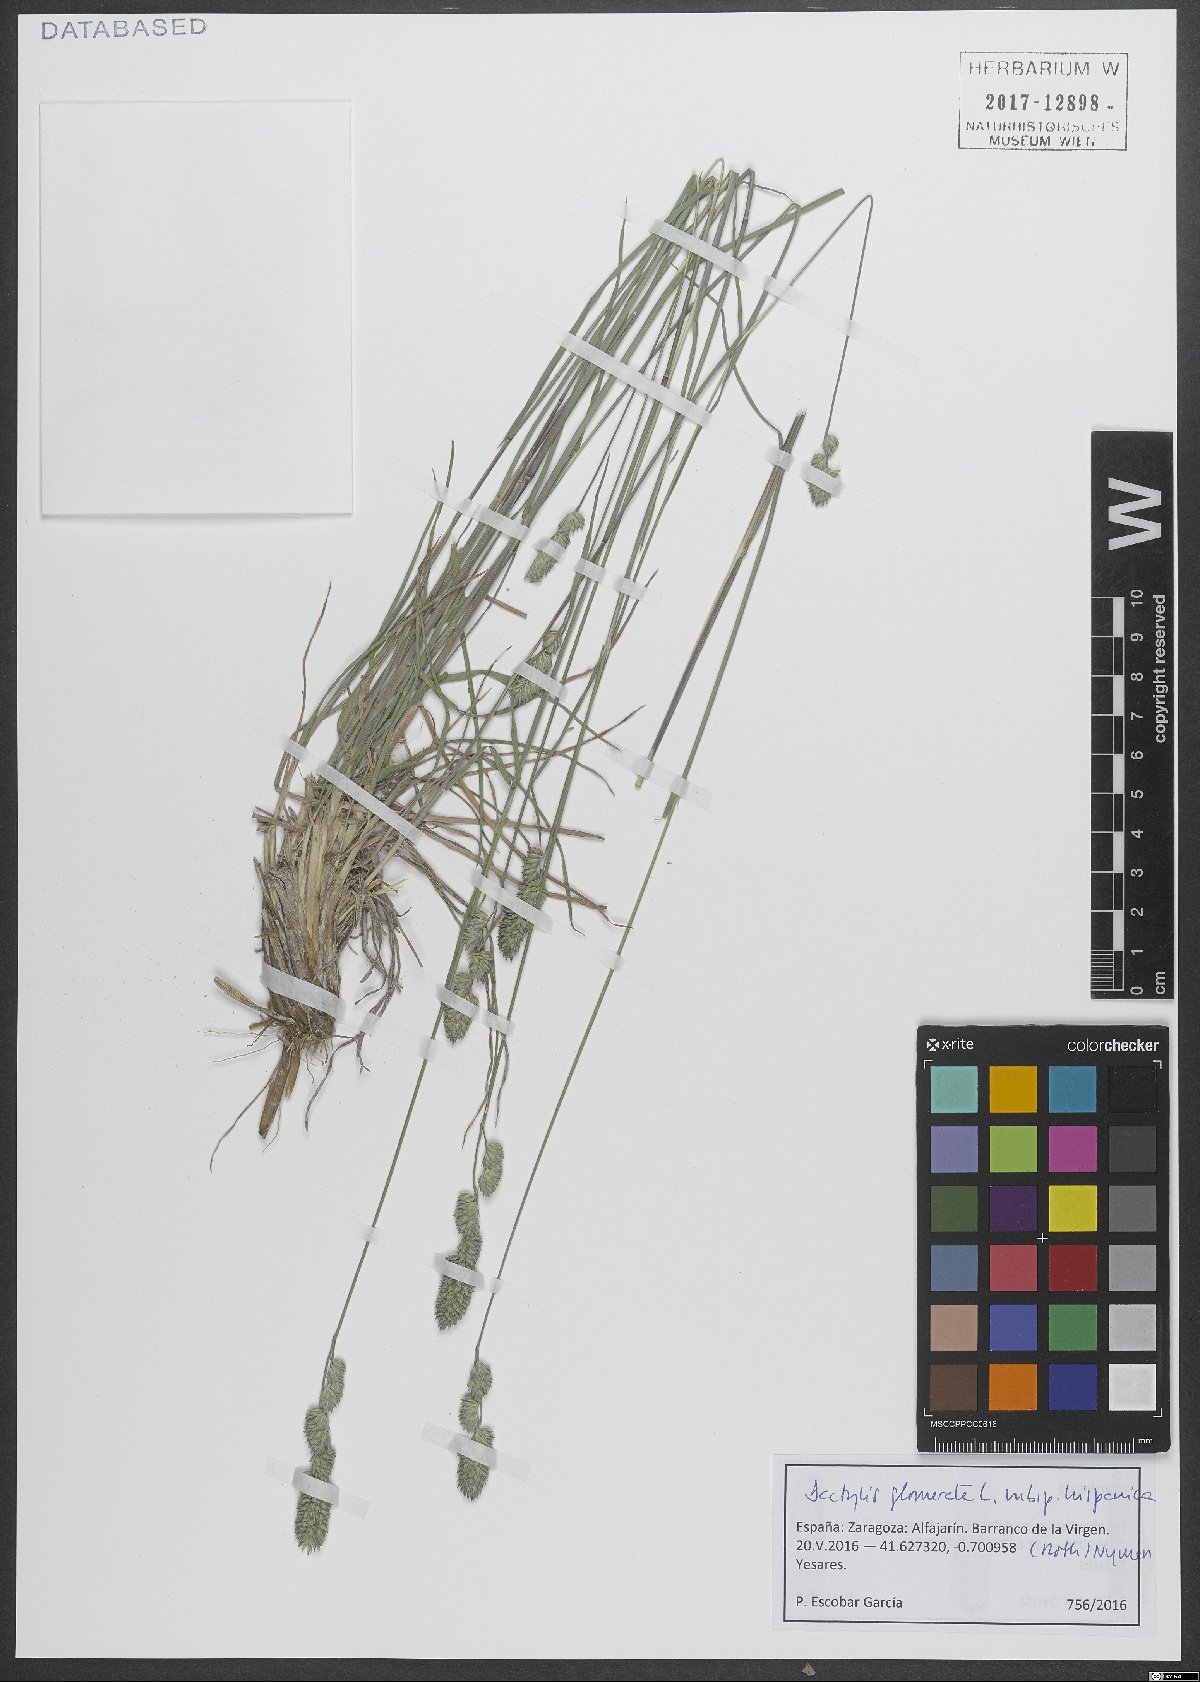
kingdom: Plantae
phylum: Tracheophyta
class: Liliopsida
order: Poales
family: Poaceae
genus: Dactylis
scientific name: Dactylis glomerata
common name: Orchardgrass
